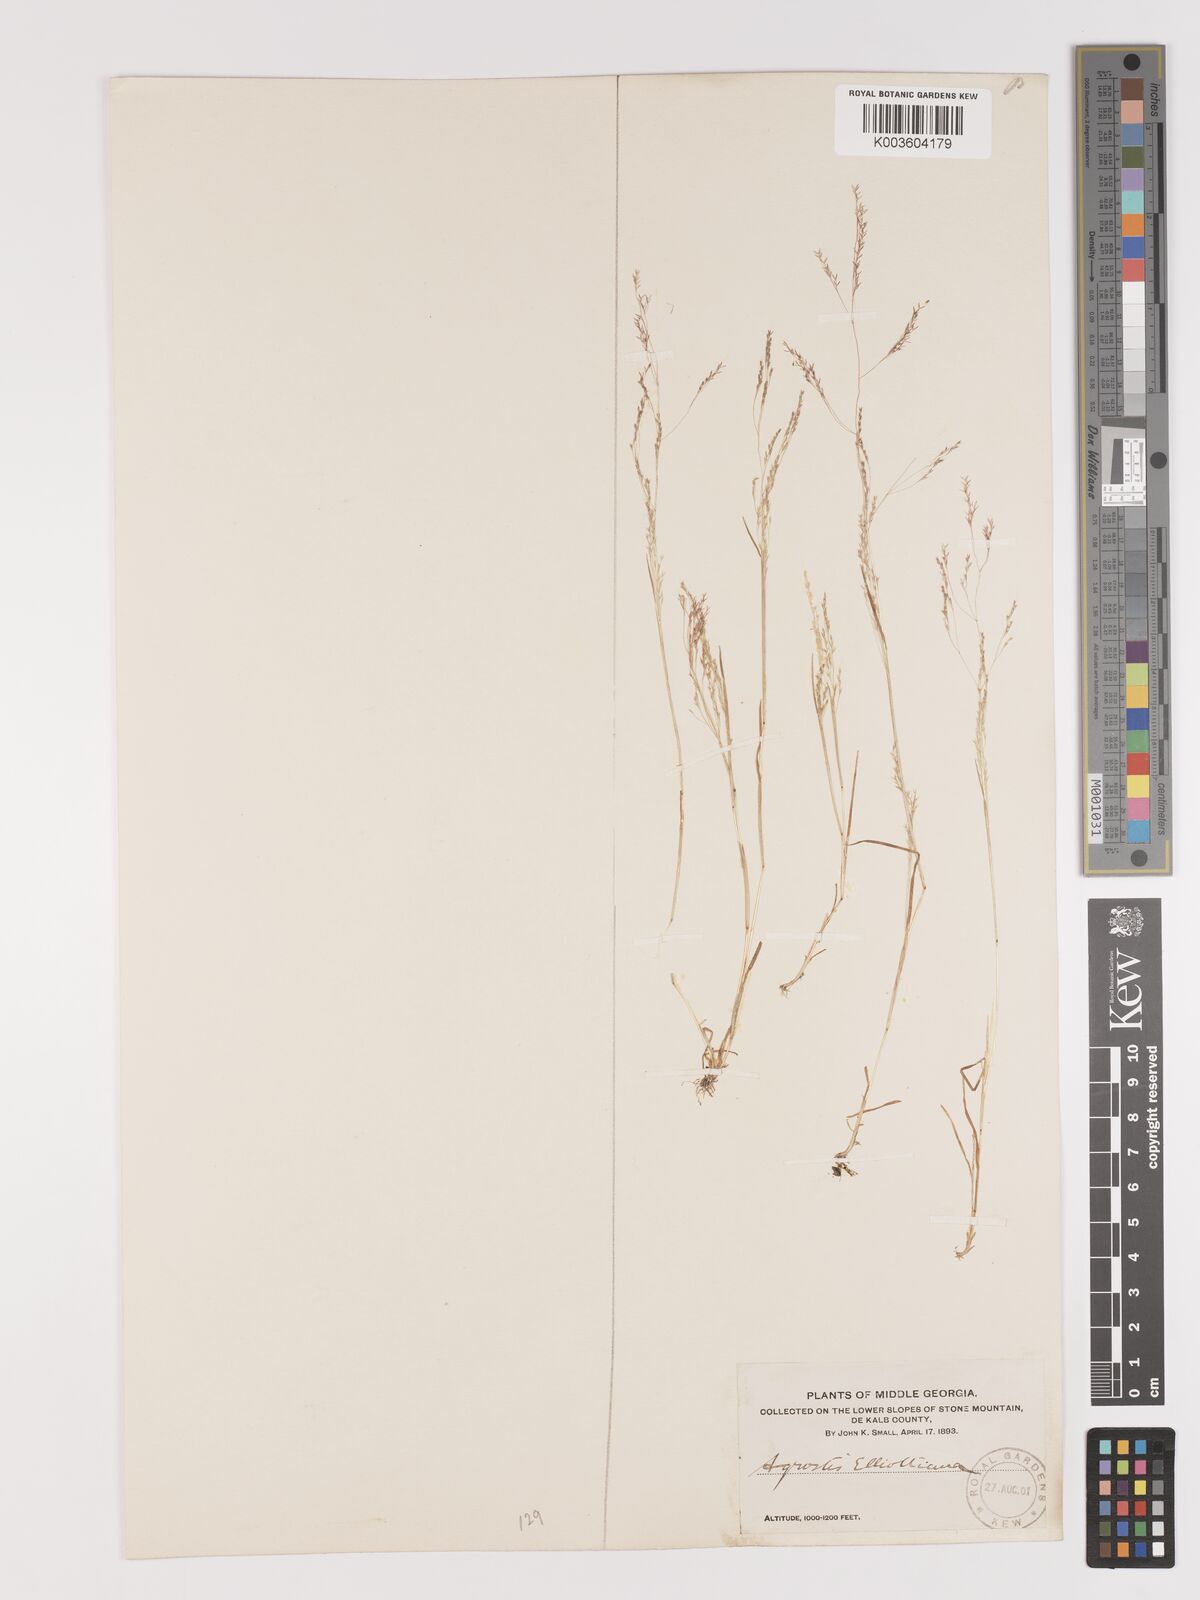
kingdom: Plantae
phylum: Tracheophyta
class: Liliopsida
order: Poales
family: Poaceae
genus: Agrostis
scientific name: Agrostis elliottiana
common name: Elliott's bent
